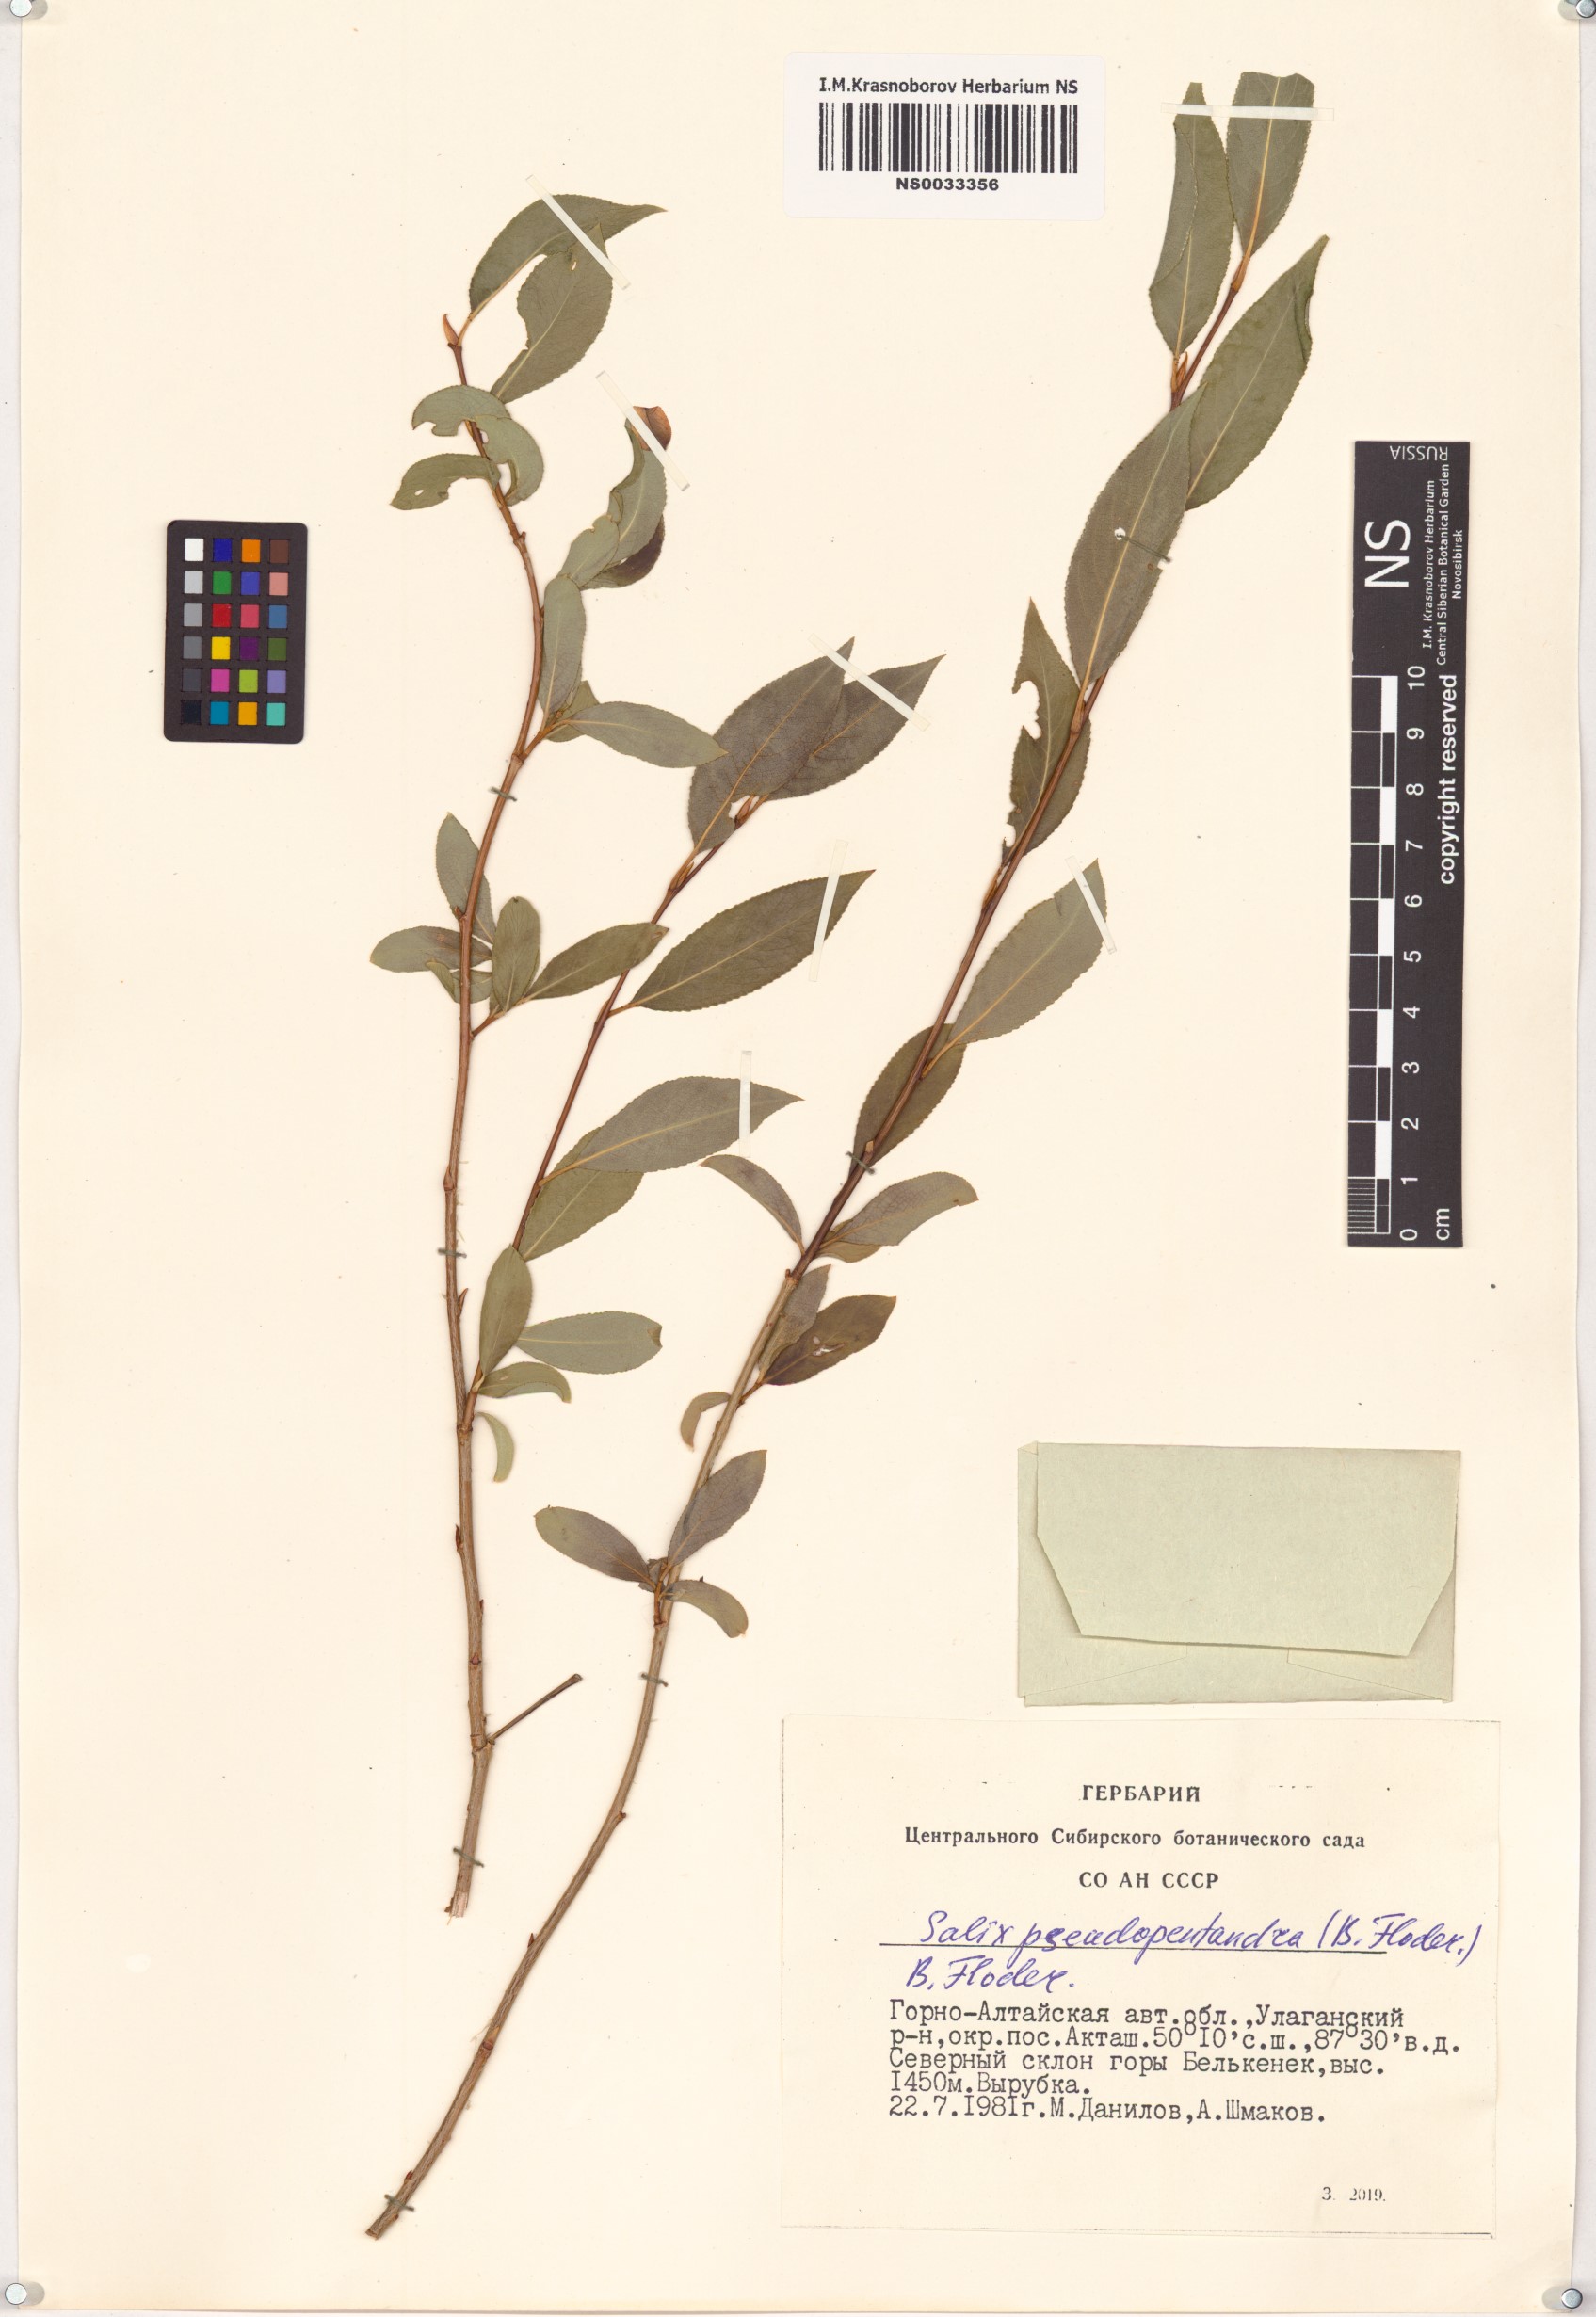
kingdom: Plantae
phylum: Tracheophyta
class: Magnoliopsida
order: Malpighiales
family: Salicaceae
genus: Salix
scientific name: Salix pseudopentandra
